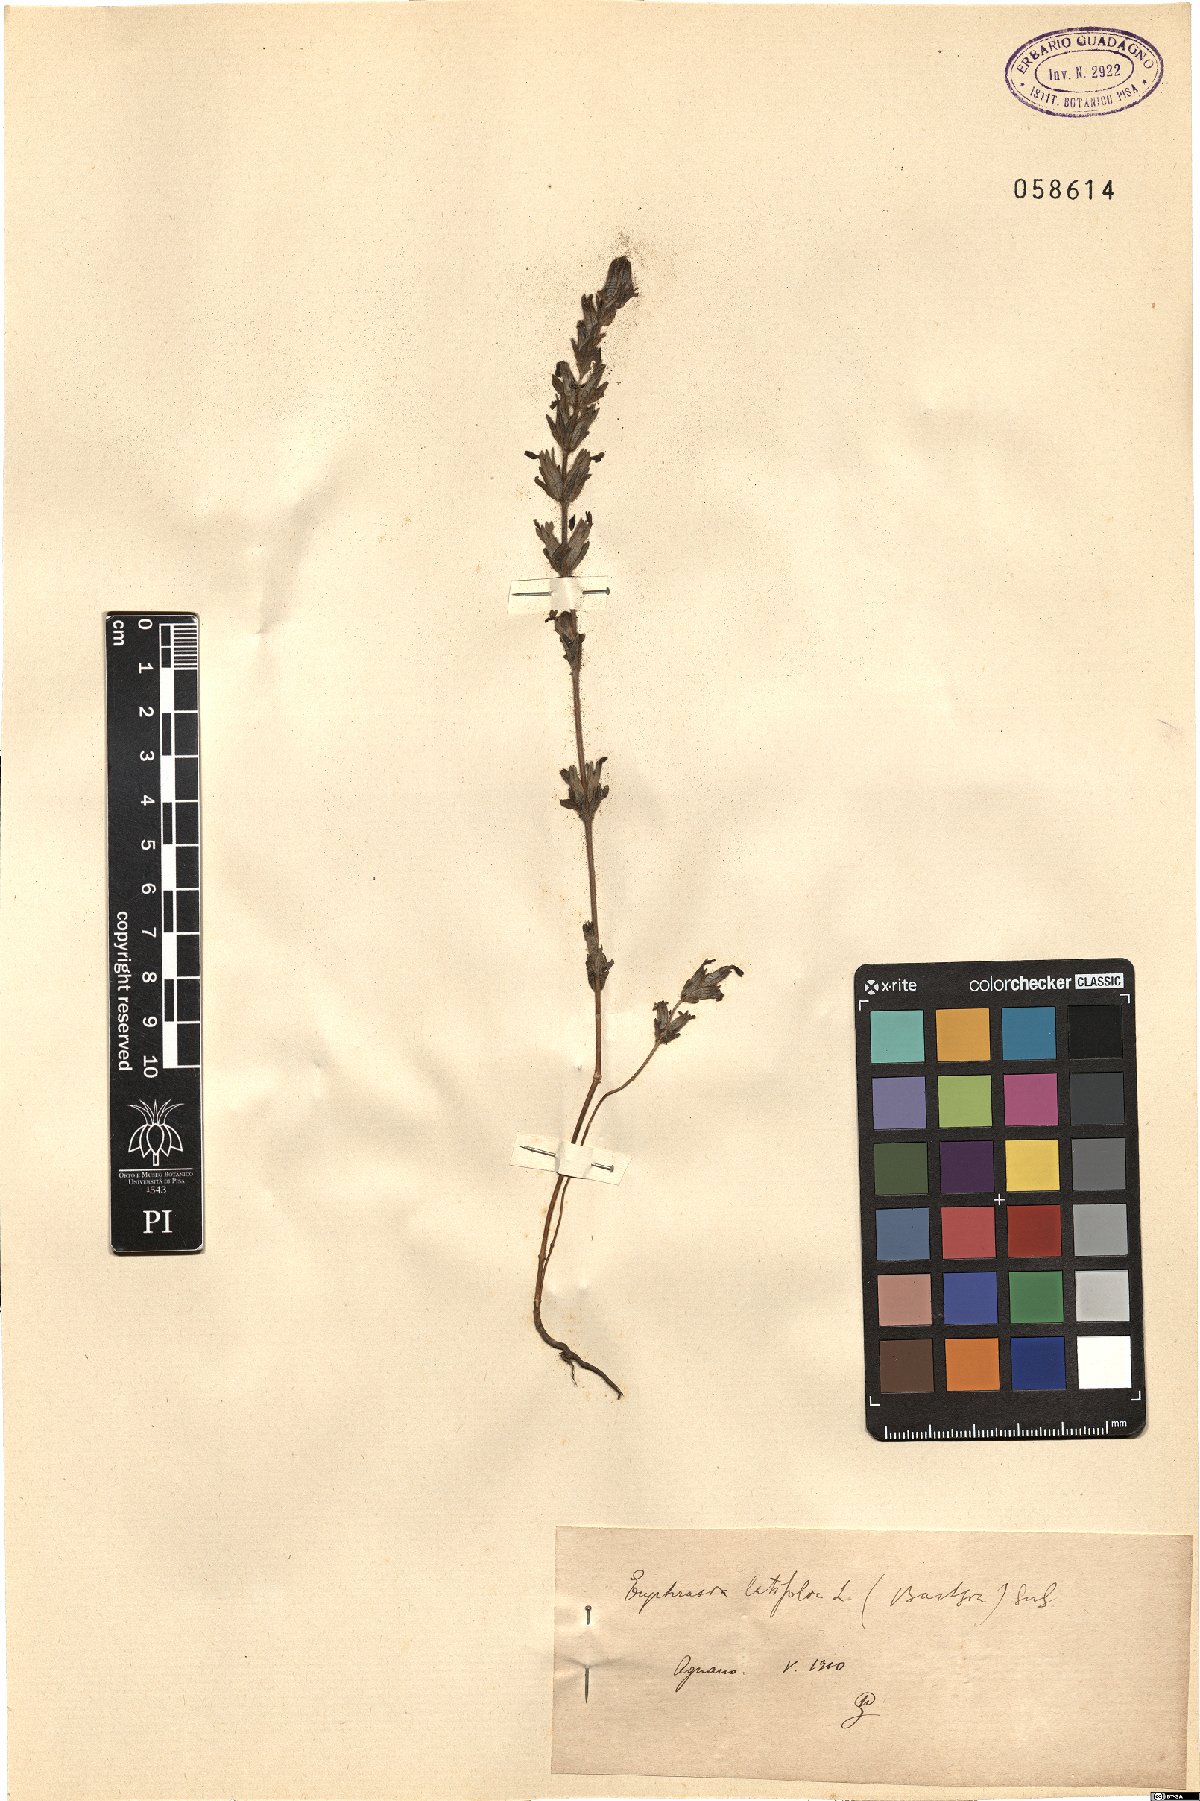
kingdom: Plantae
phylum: Tracheophyta
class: Magnoliopsida
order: Lamiales
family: Orobanchaceae
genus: Parentucellia
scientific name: Parentucellia latifolia
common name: Broadleaf glandweed
